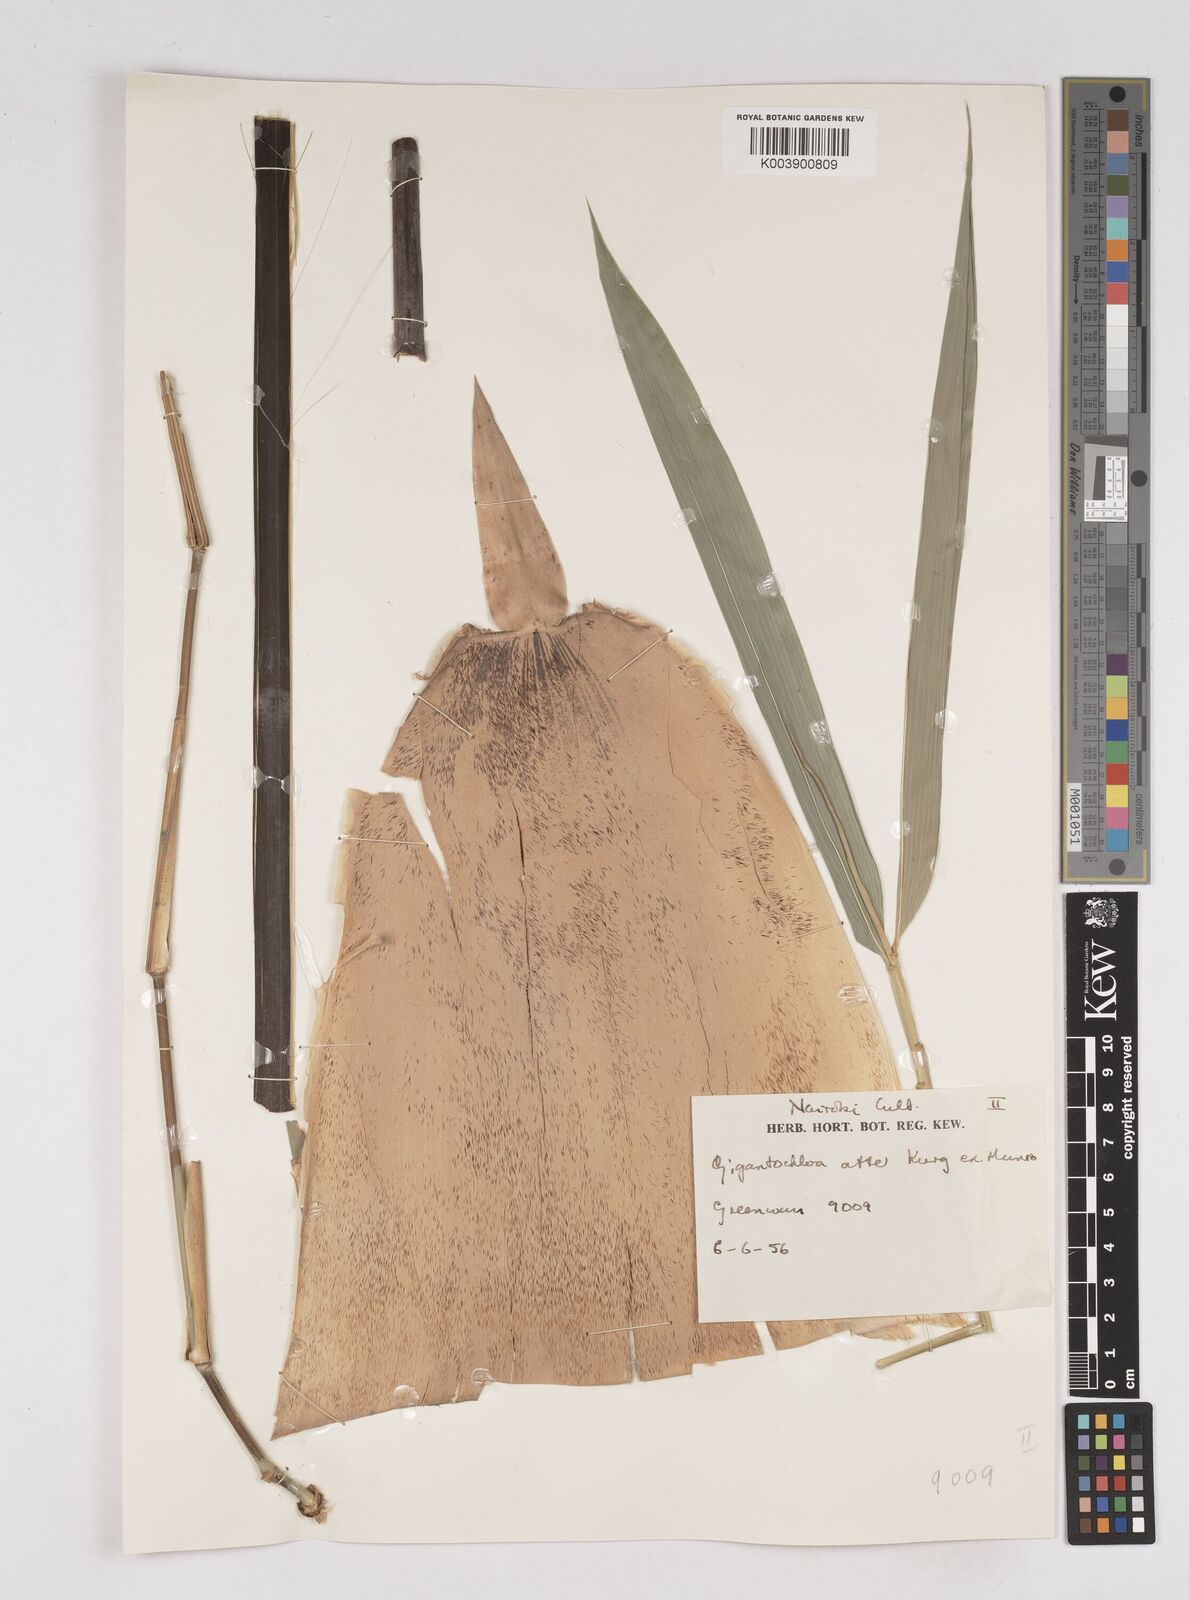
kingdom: Plantae
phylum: Tracheophyta
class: Liliopsida
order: Poales
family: Poaceae
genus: Gigantochloa
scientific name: Gigantochloa atter
